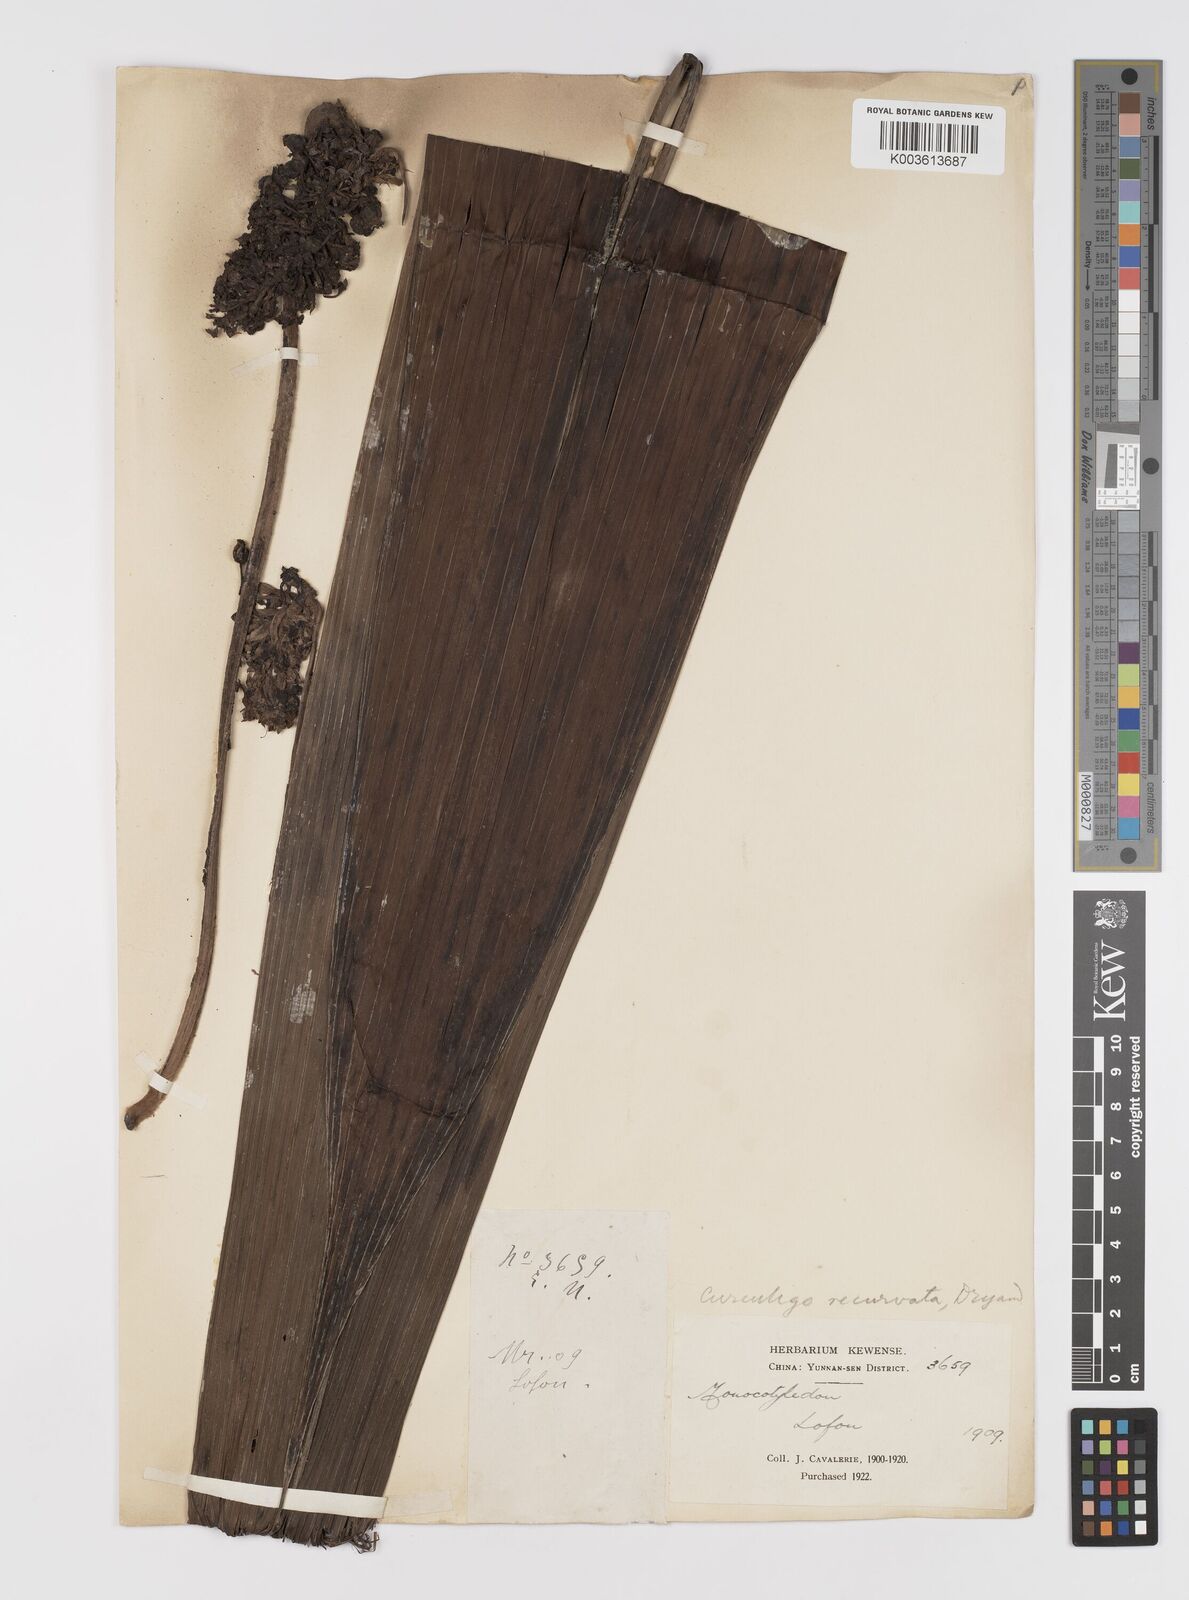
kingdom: Plantae
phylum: Tracheophyta
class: Liliopsida
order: Asparagales
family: Hypoxidaceae
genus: Curculigo
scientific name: Curculigo capitulata
